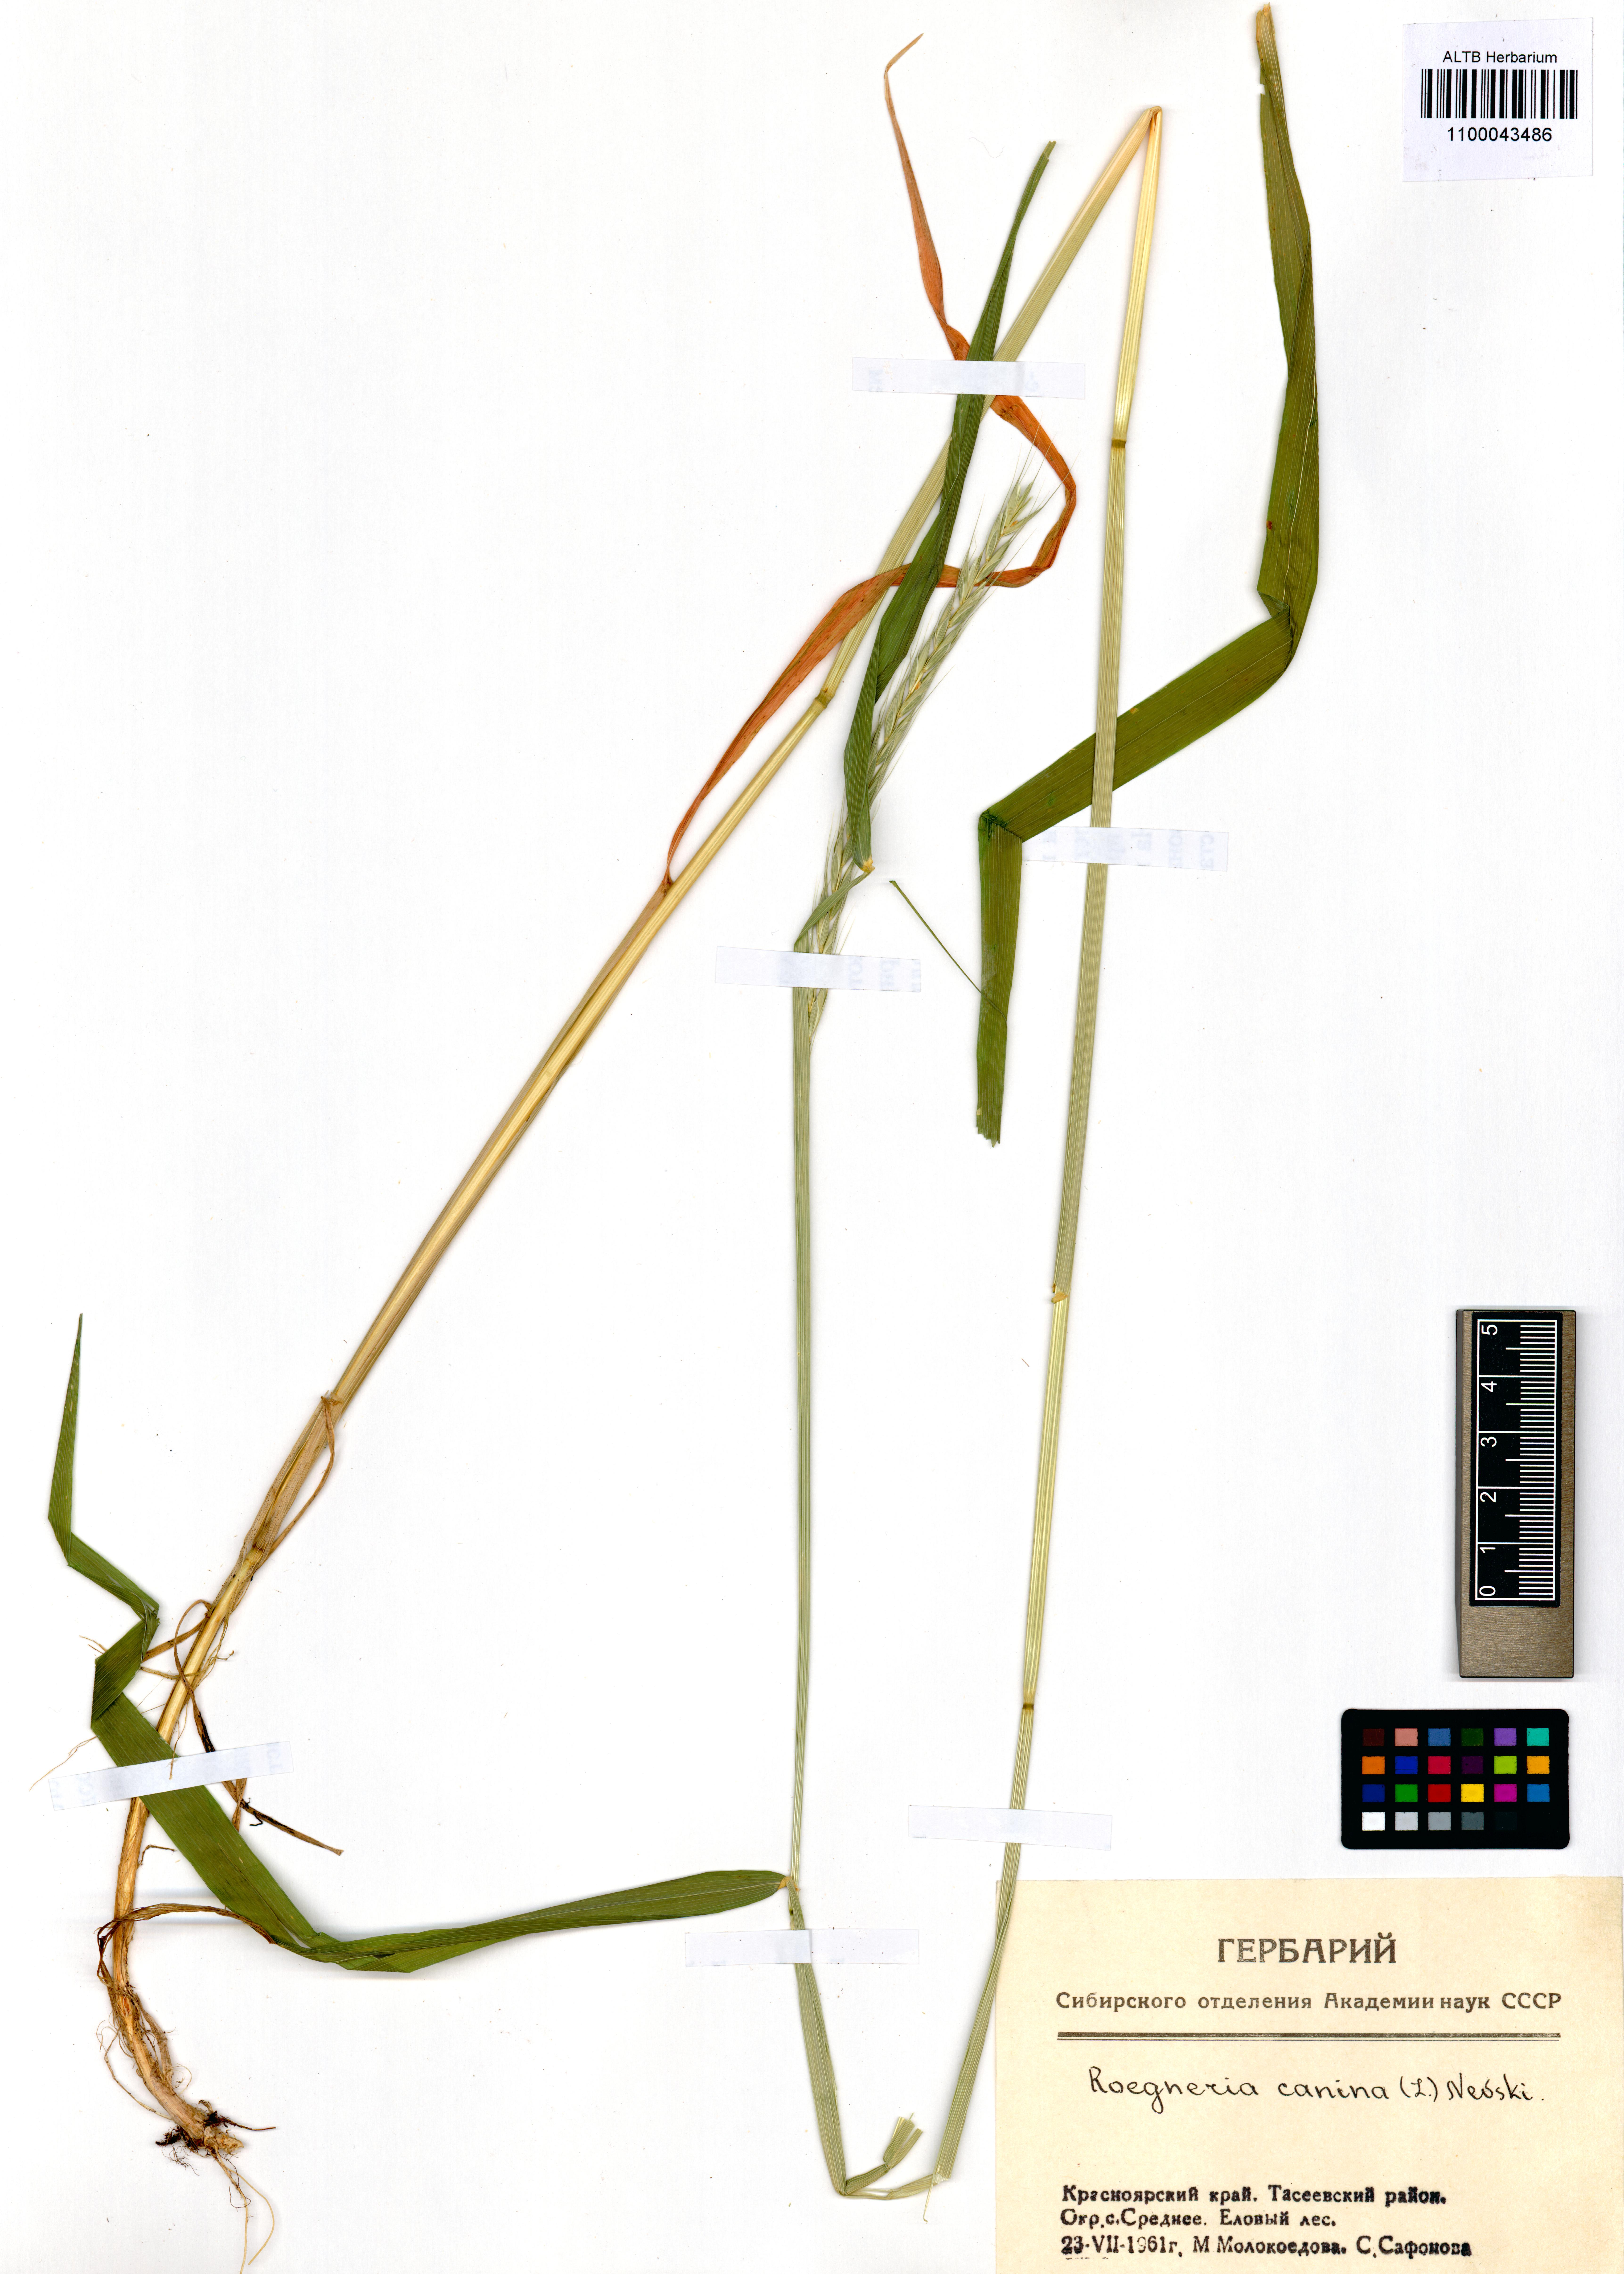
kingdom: Plantae
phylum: Tracheophyta
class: Liliopsida
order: Poales
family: Poaceae
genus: Elymus
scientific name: Elymus caninus
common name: Bearded couch
